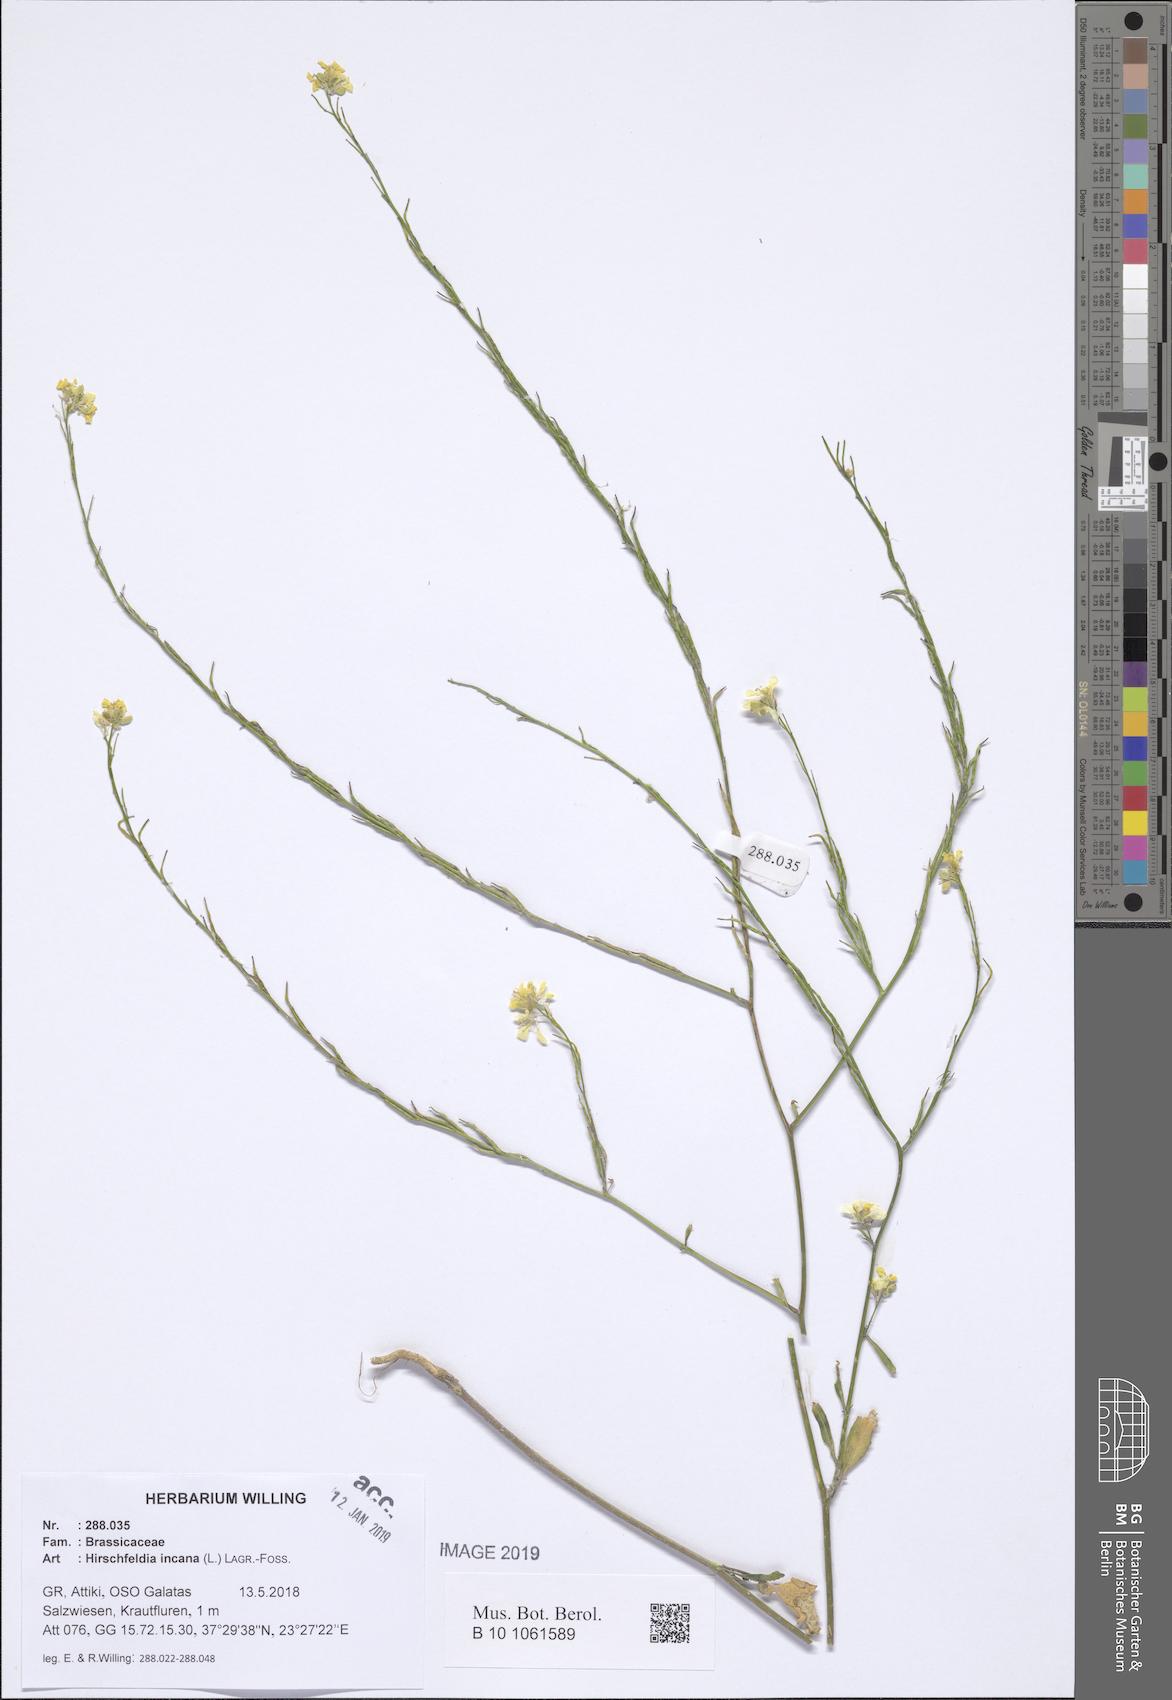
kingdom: Plantae
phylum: Tracheophyta
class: Magnoliopsida
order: Brassicales
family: Brassicaceae
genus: Hirschfeldia
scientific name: Hirschfeldia incana
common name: Hoary mustard
